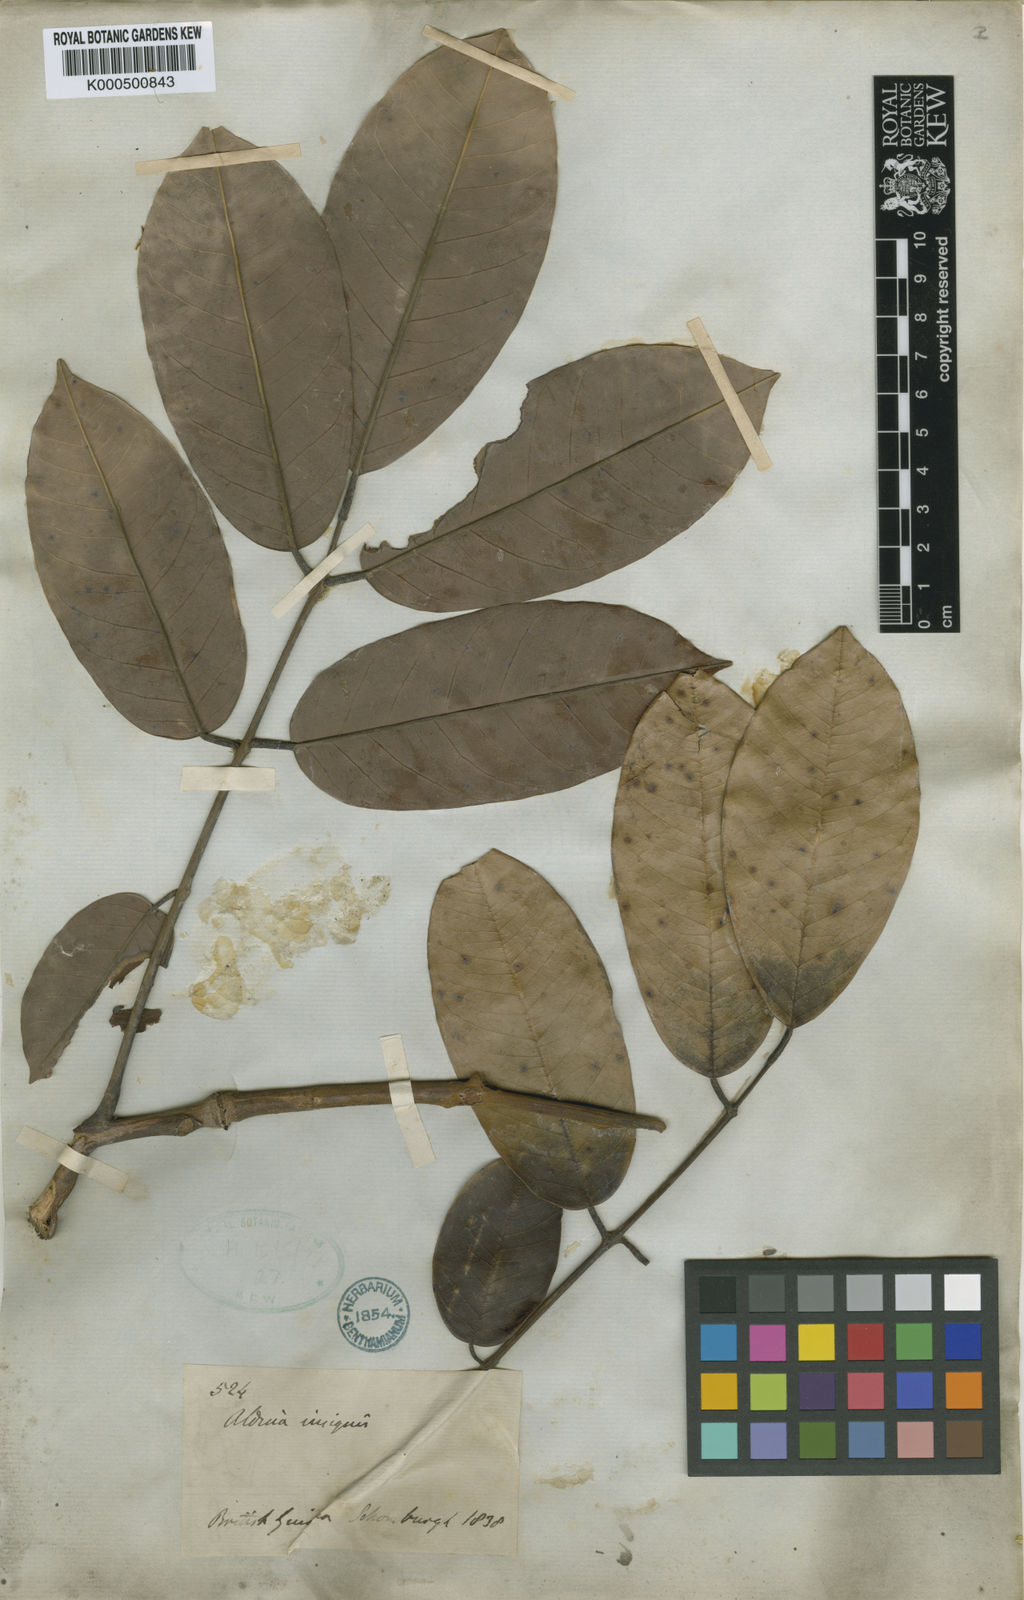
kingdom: Plantae
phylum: Tracheophyta
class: Magnoliopsida
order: Fabales
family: Fabaceae
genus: Aldina
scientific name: Aldina insignis
